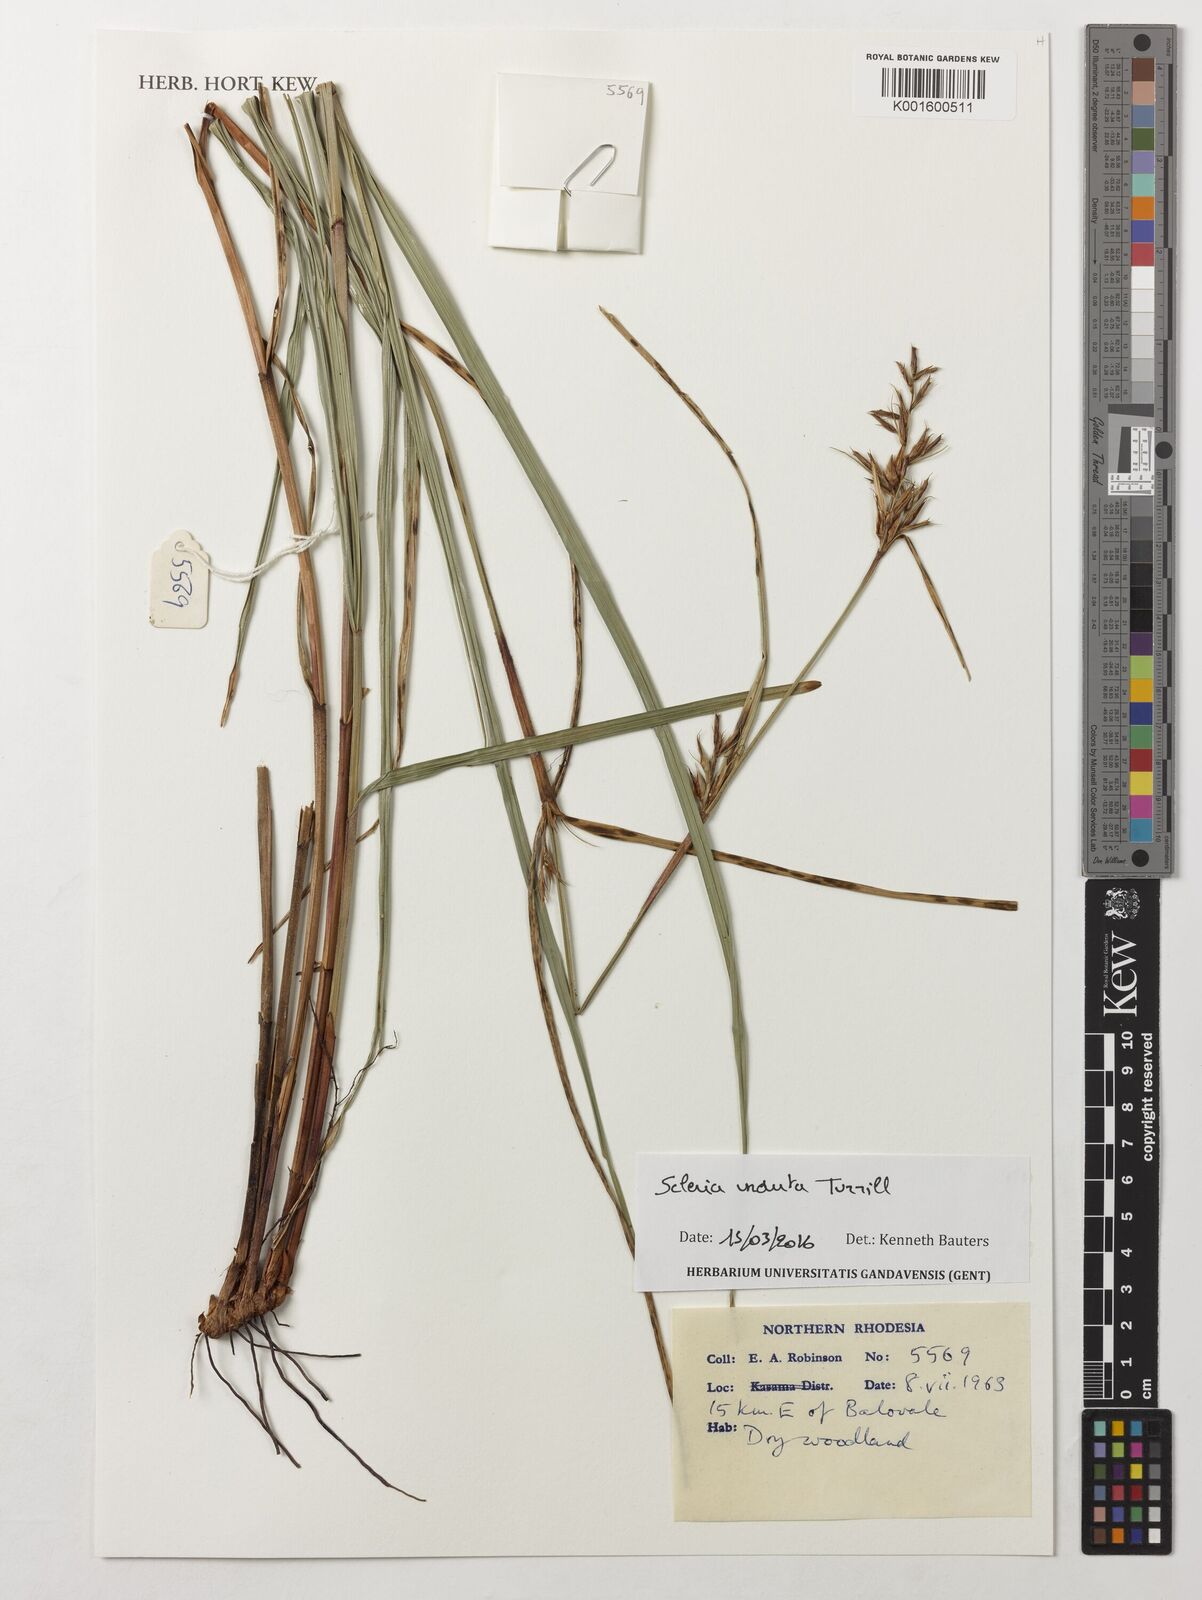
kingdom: Plantae
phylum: Tracheophyta
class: Liliopsida
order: Poales
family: Cyperaceae
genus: Scleria
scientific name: Scleria induta
